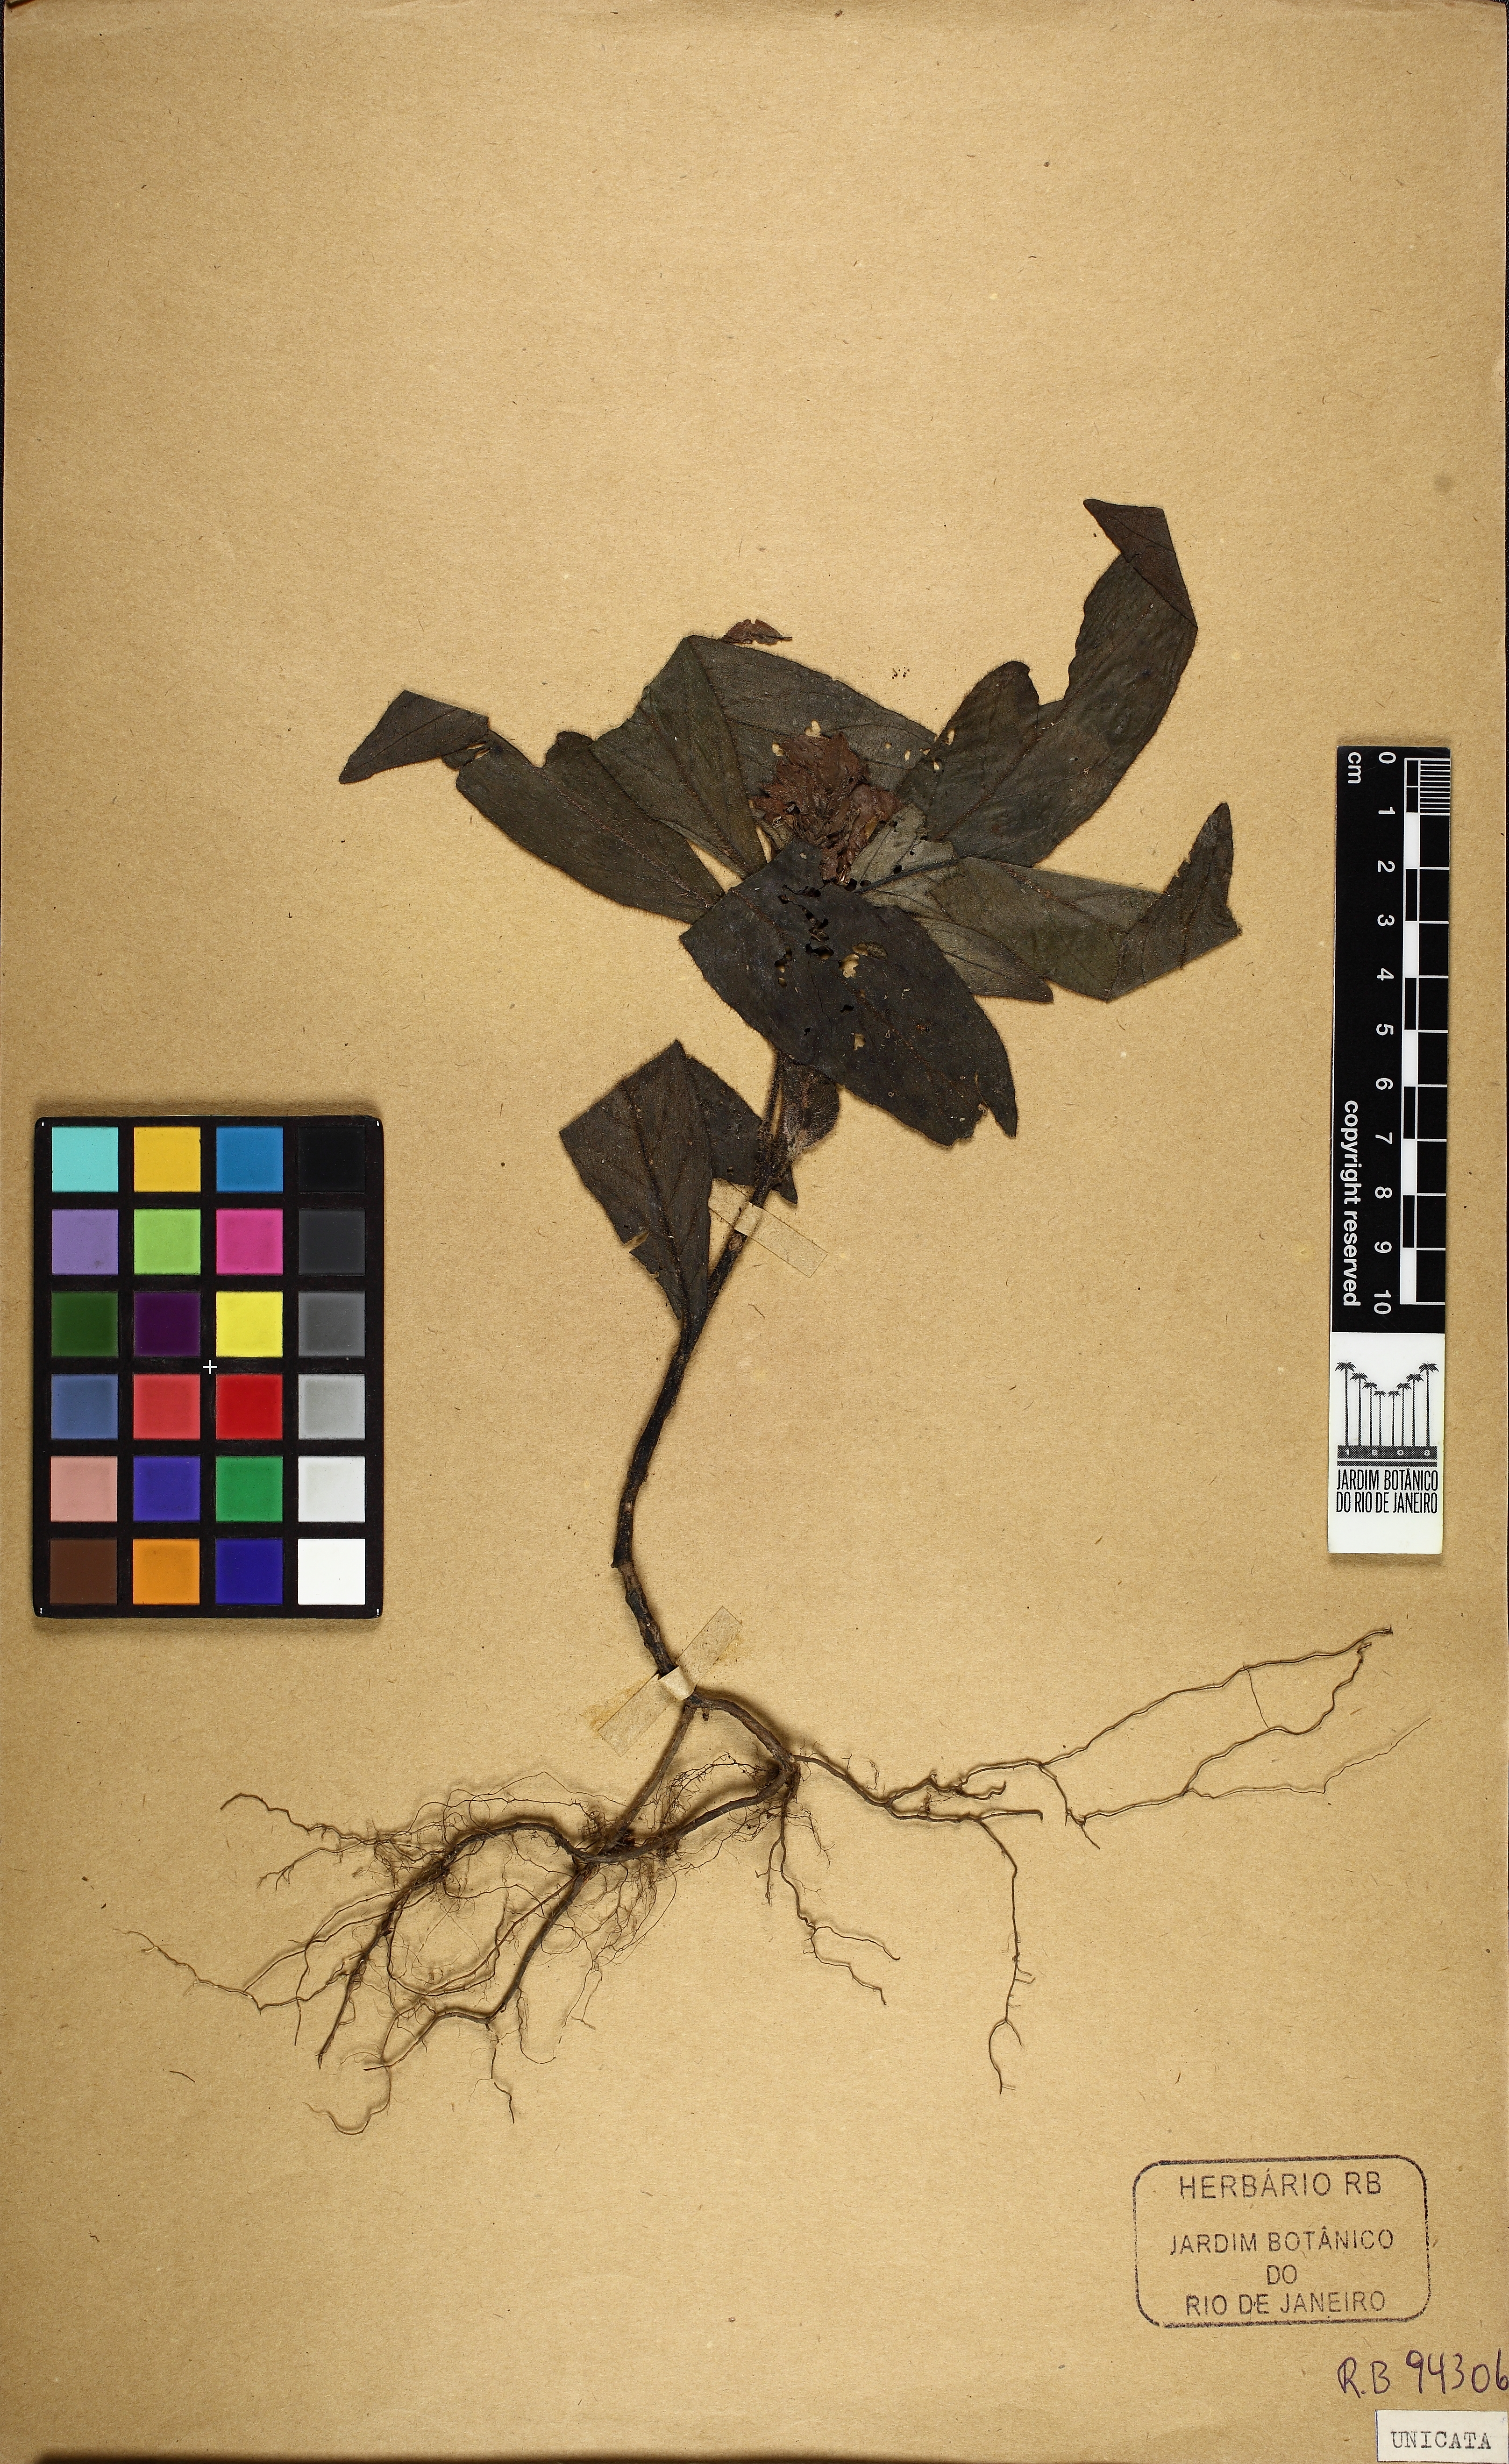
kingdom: Plantae
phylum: Tracheophyta
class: Magnoliopsida
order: Lamiales
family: Acanthaceae
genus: Justicia
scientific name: Justicia
